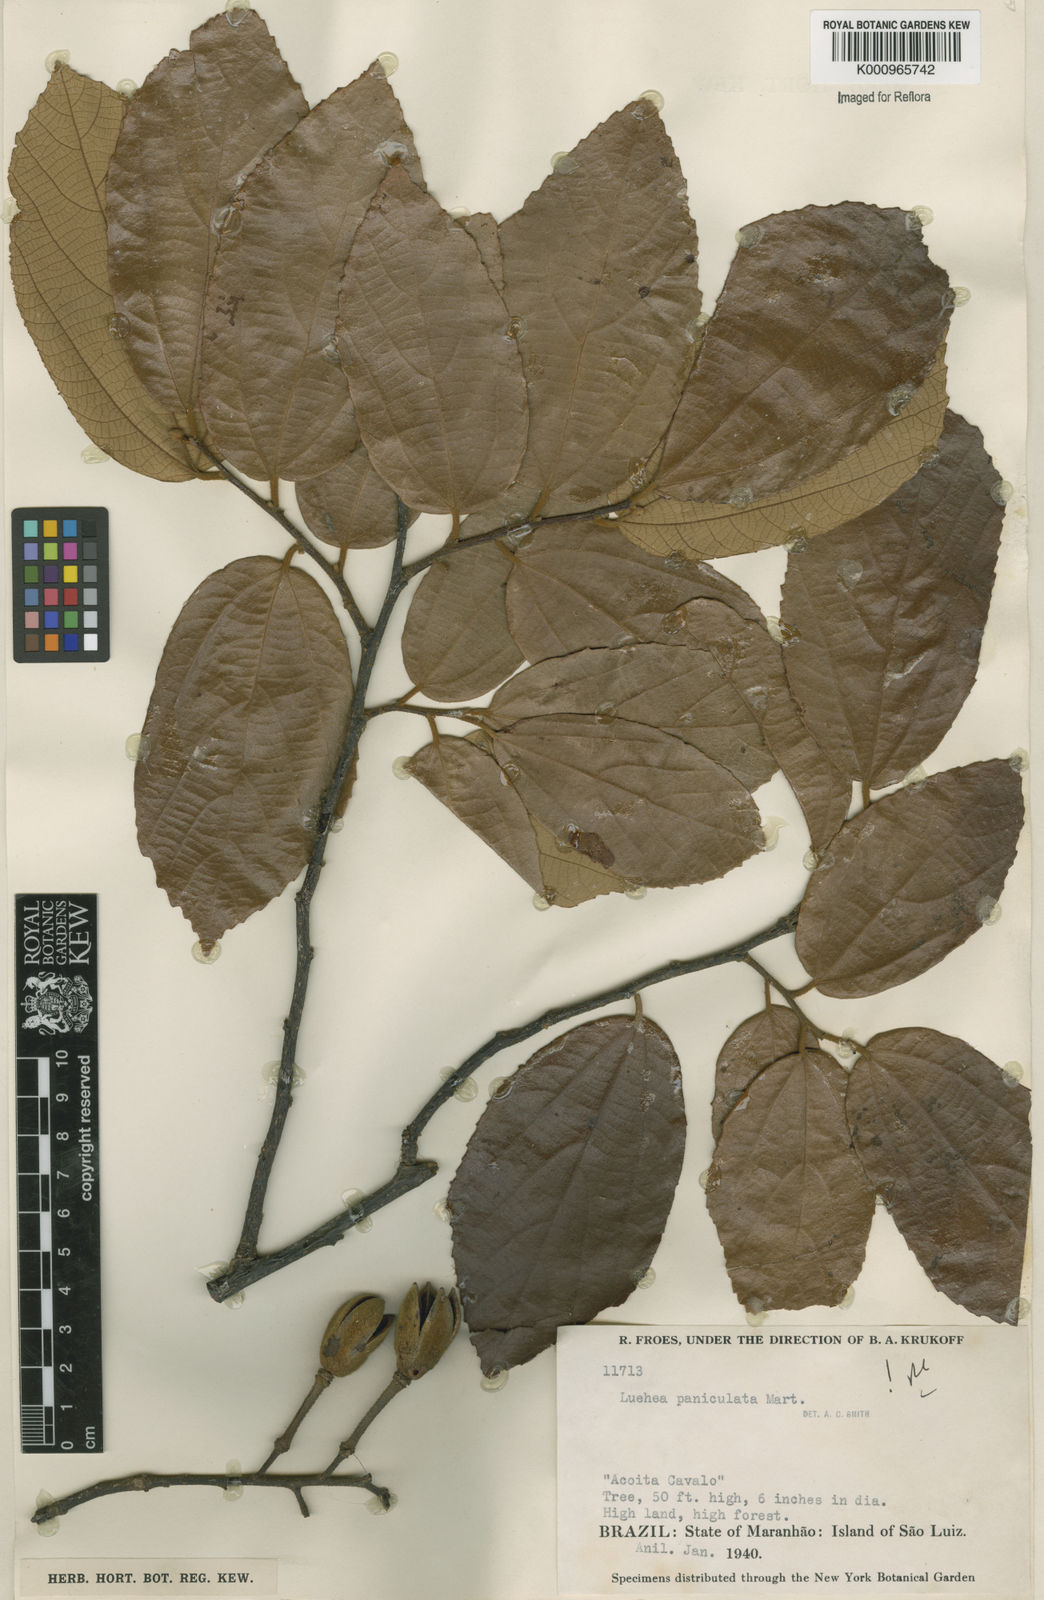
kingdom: Plantae
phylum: Tracheophyta
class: Magnoliopsida
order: Malvales
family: Malvaceae
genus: Luehea
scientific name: Luehea paniculata
